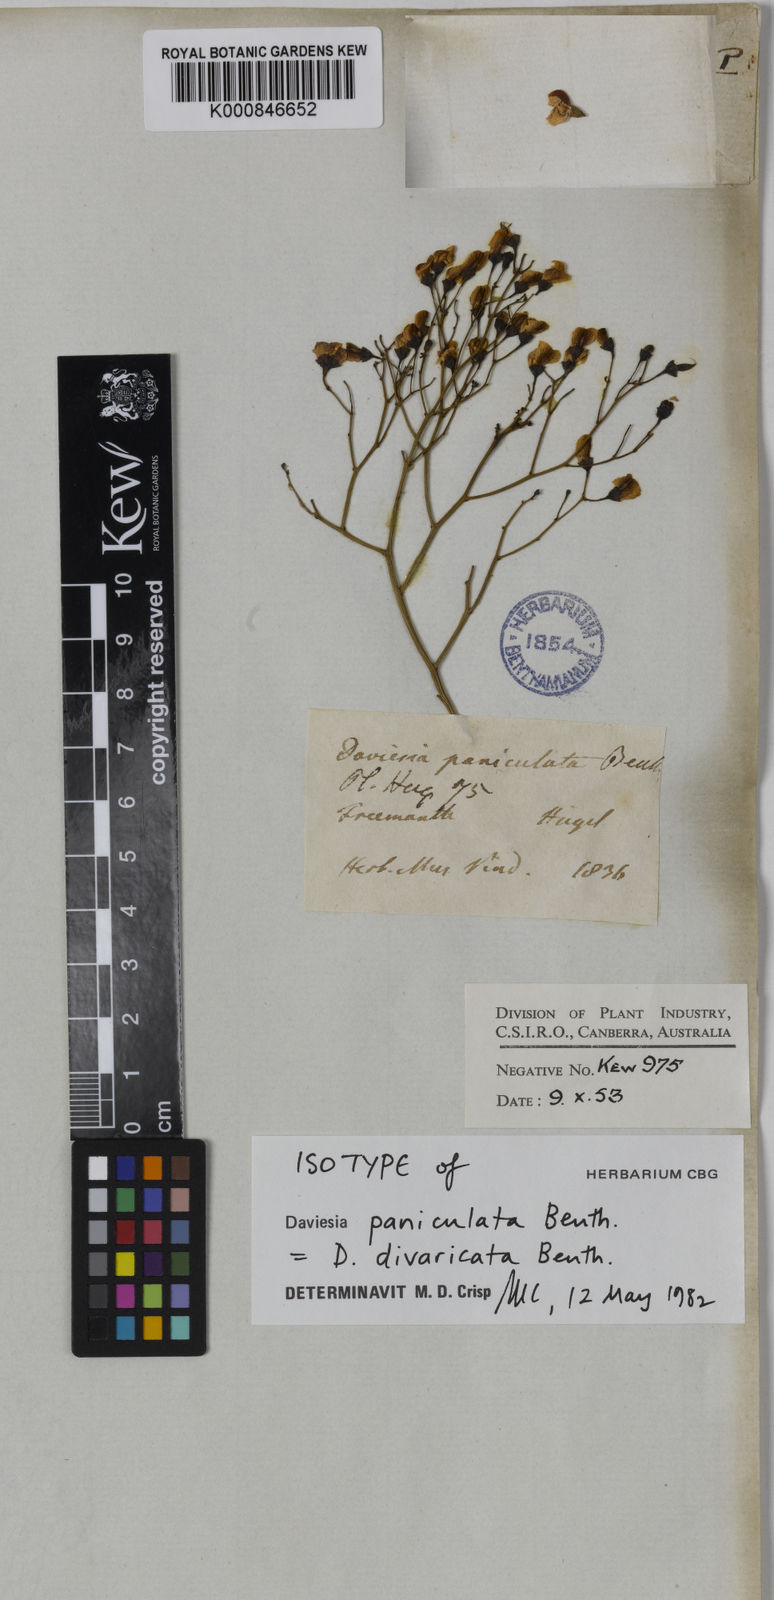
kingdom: Plantae
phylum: Tracheophyta
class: Magnoliopsida
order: Fabales
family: Fabaceae
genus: Daviesia
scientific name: Daviesia divaricata
